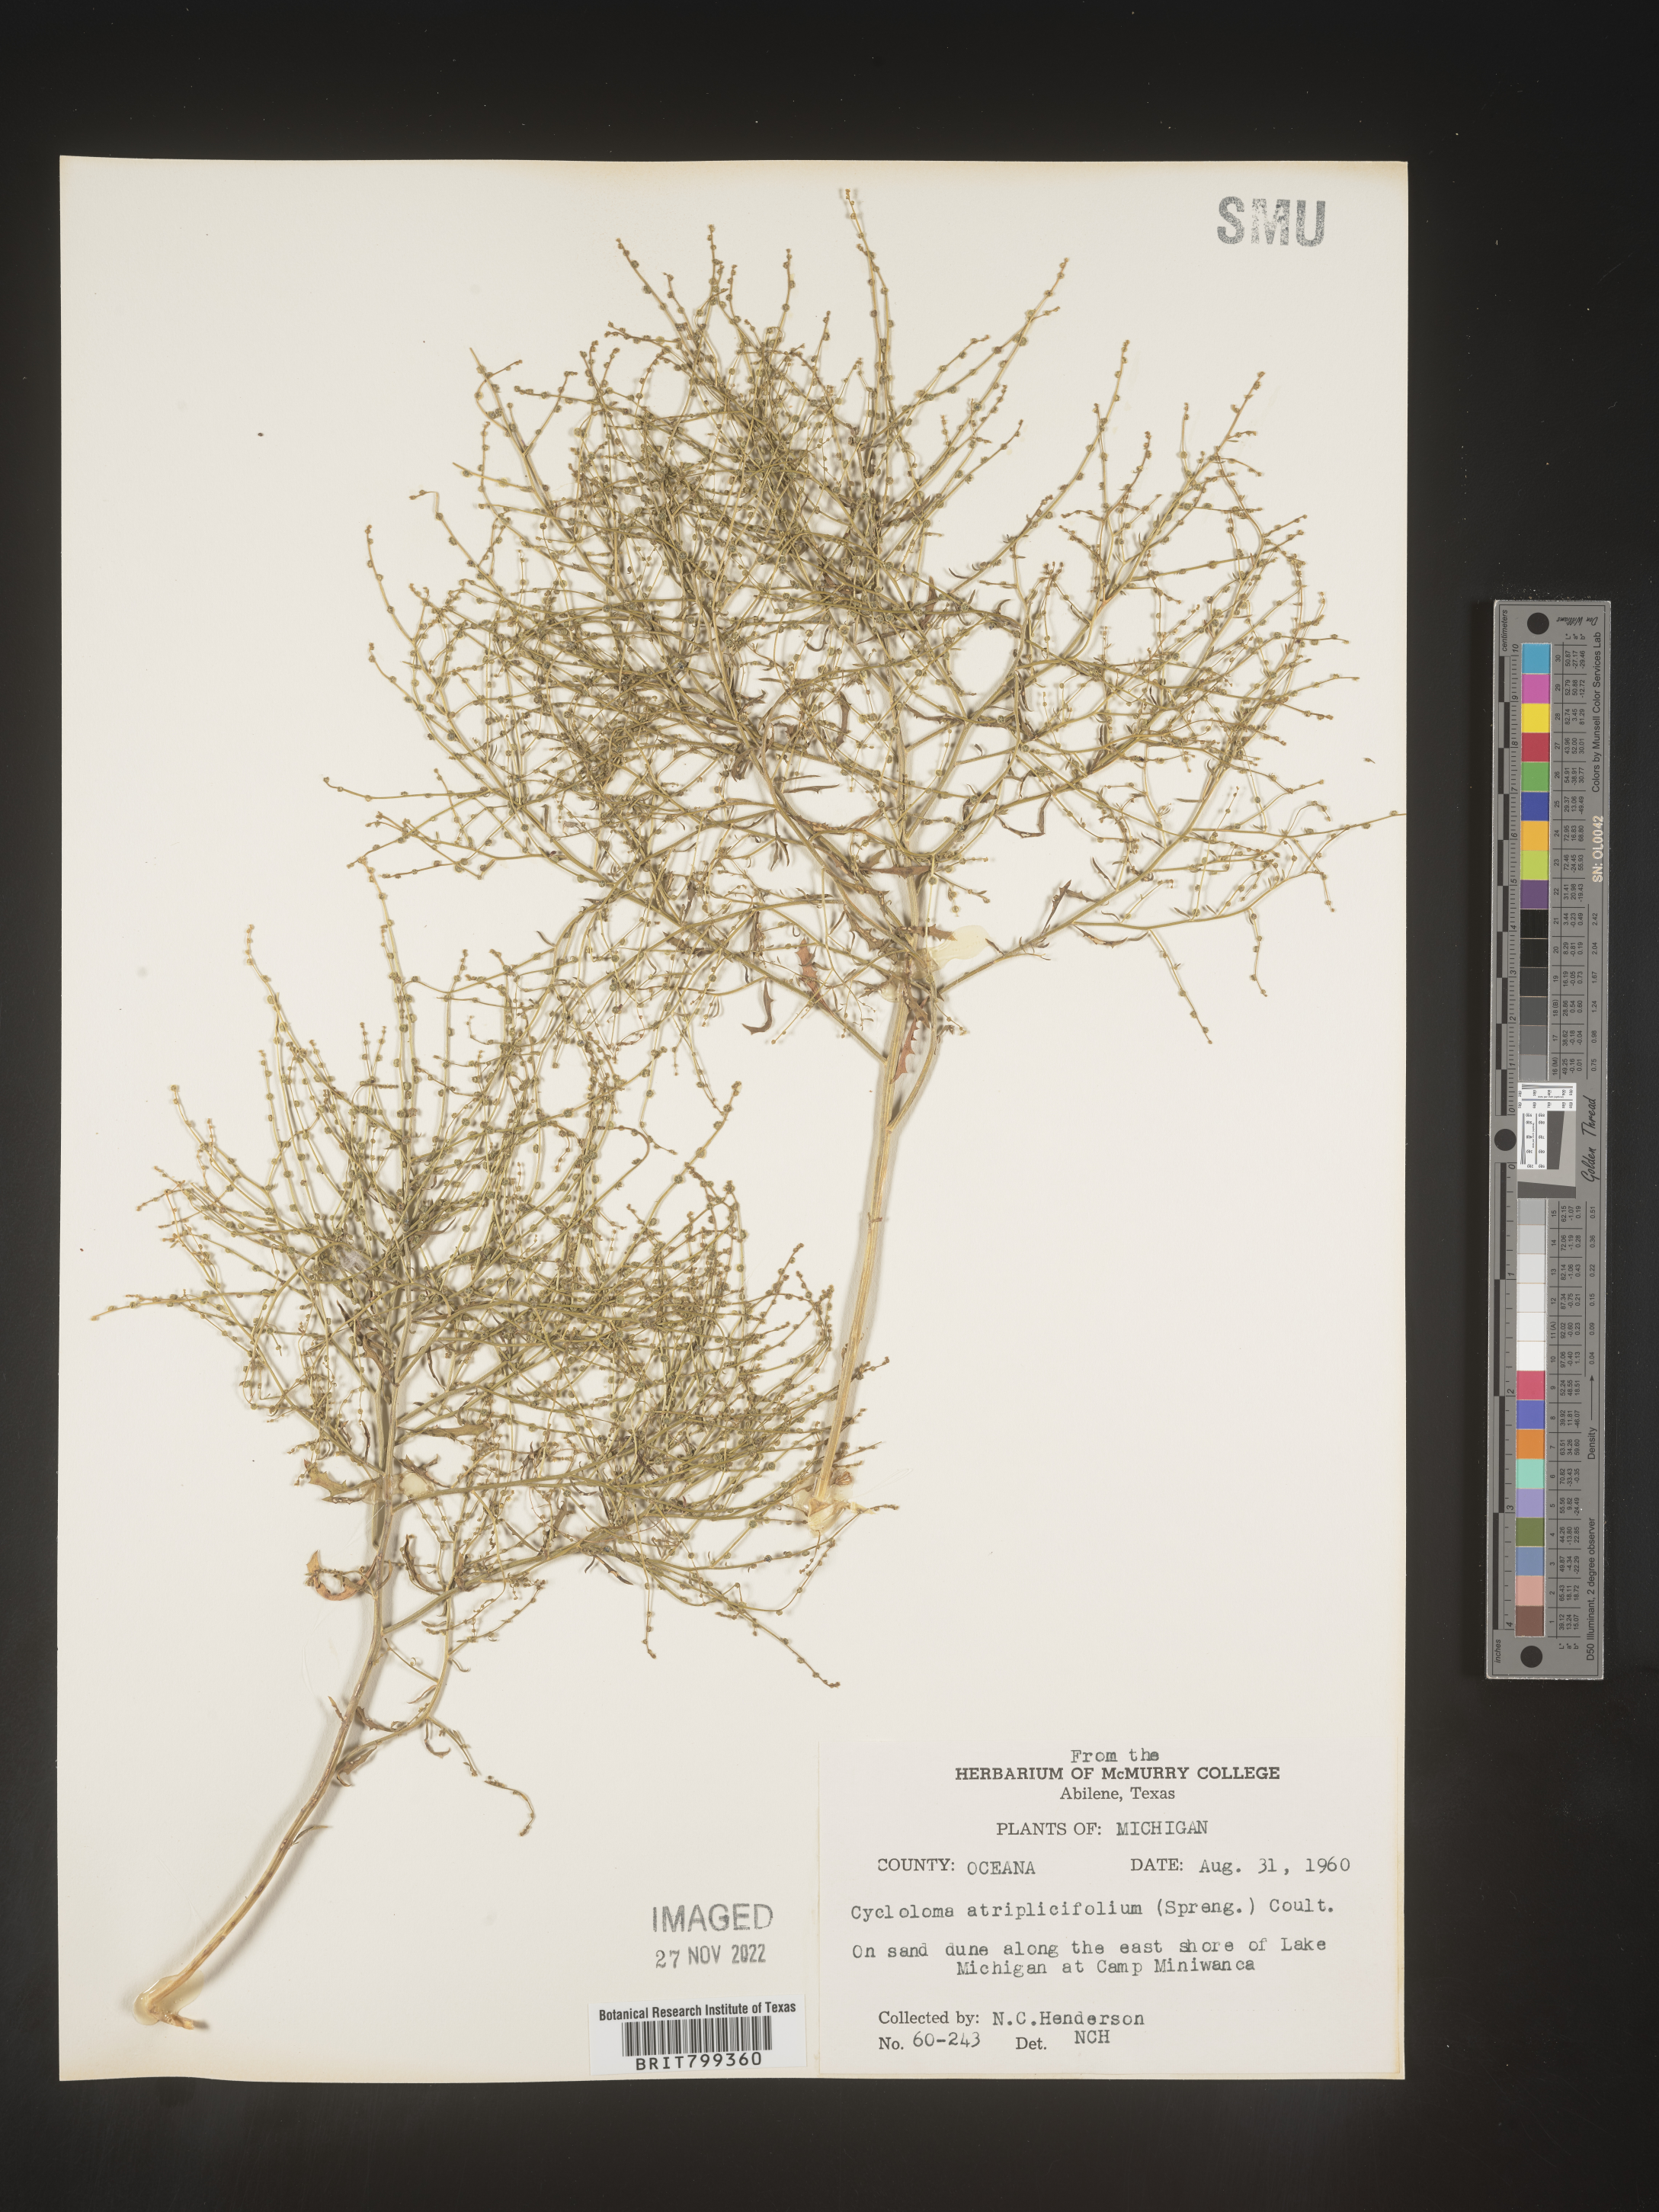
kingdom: Plantae
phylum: Tracheophyta
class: Magnoliopsida
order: Caryophyllales
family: Amaranthaceae
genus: Dysphania
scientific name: Dysphania atriplicifolia
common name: Plains tumbleweed
